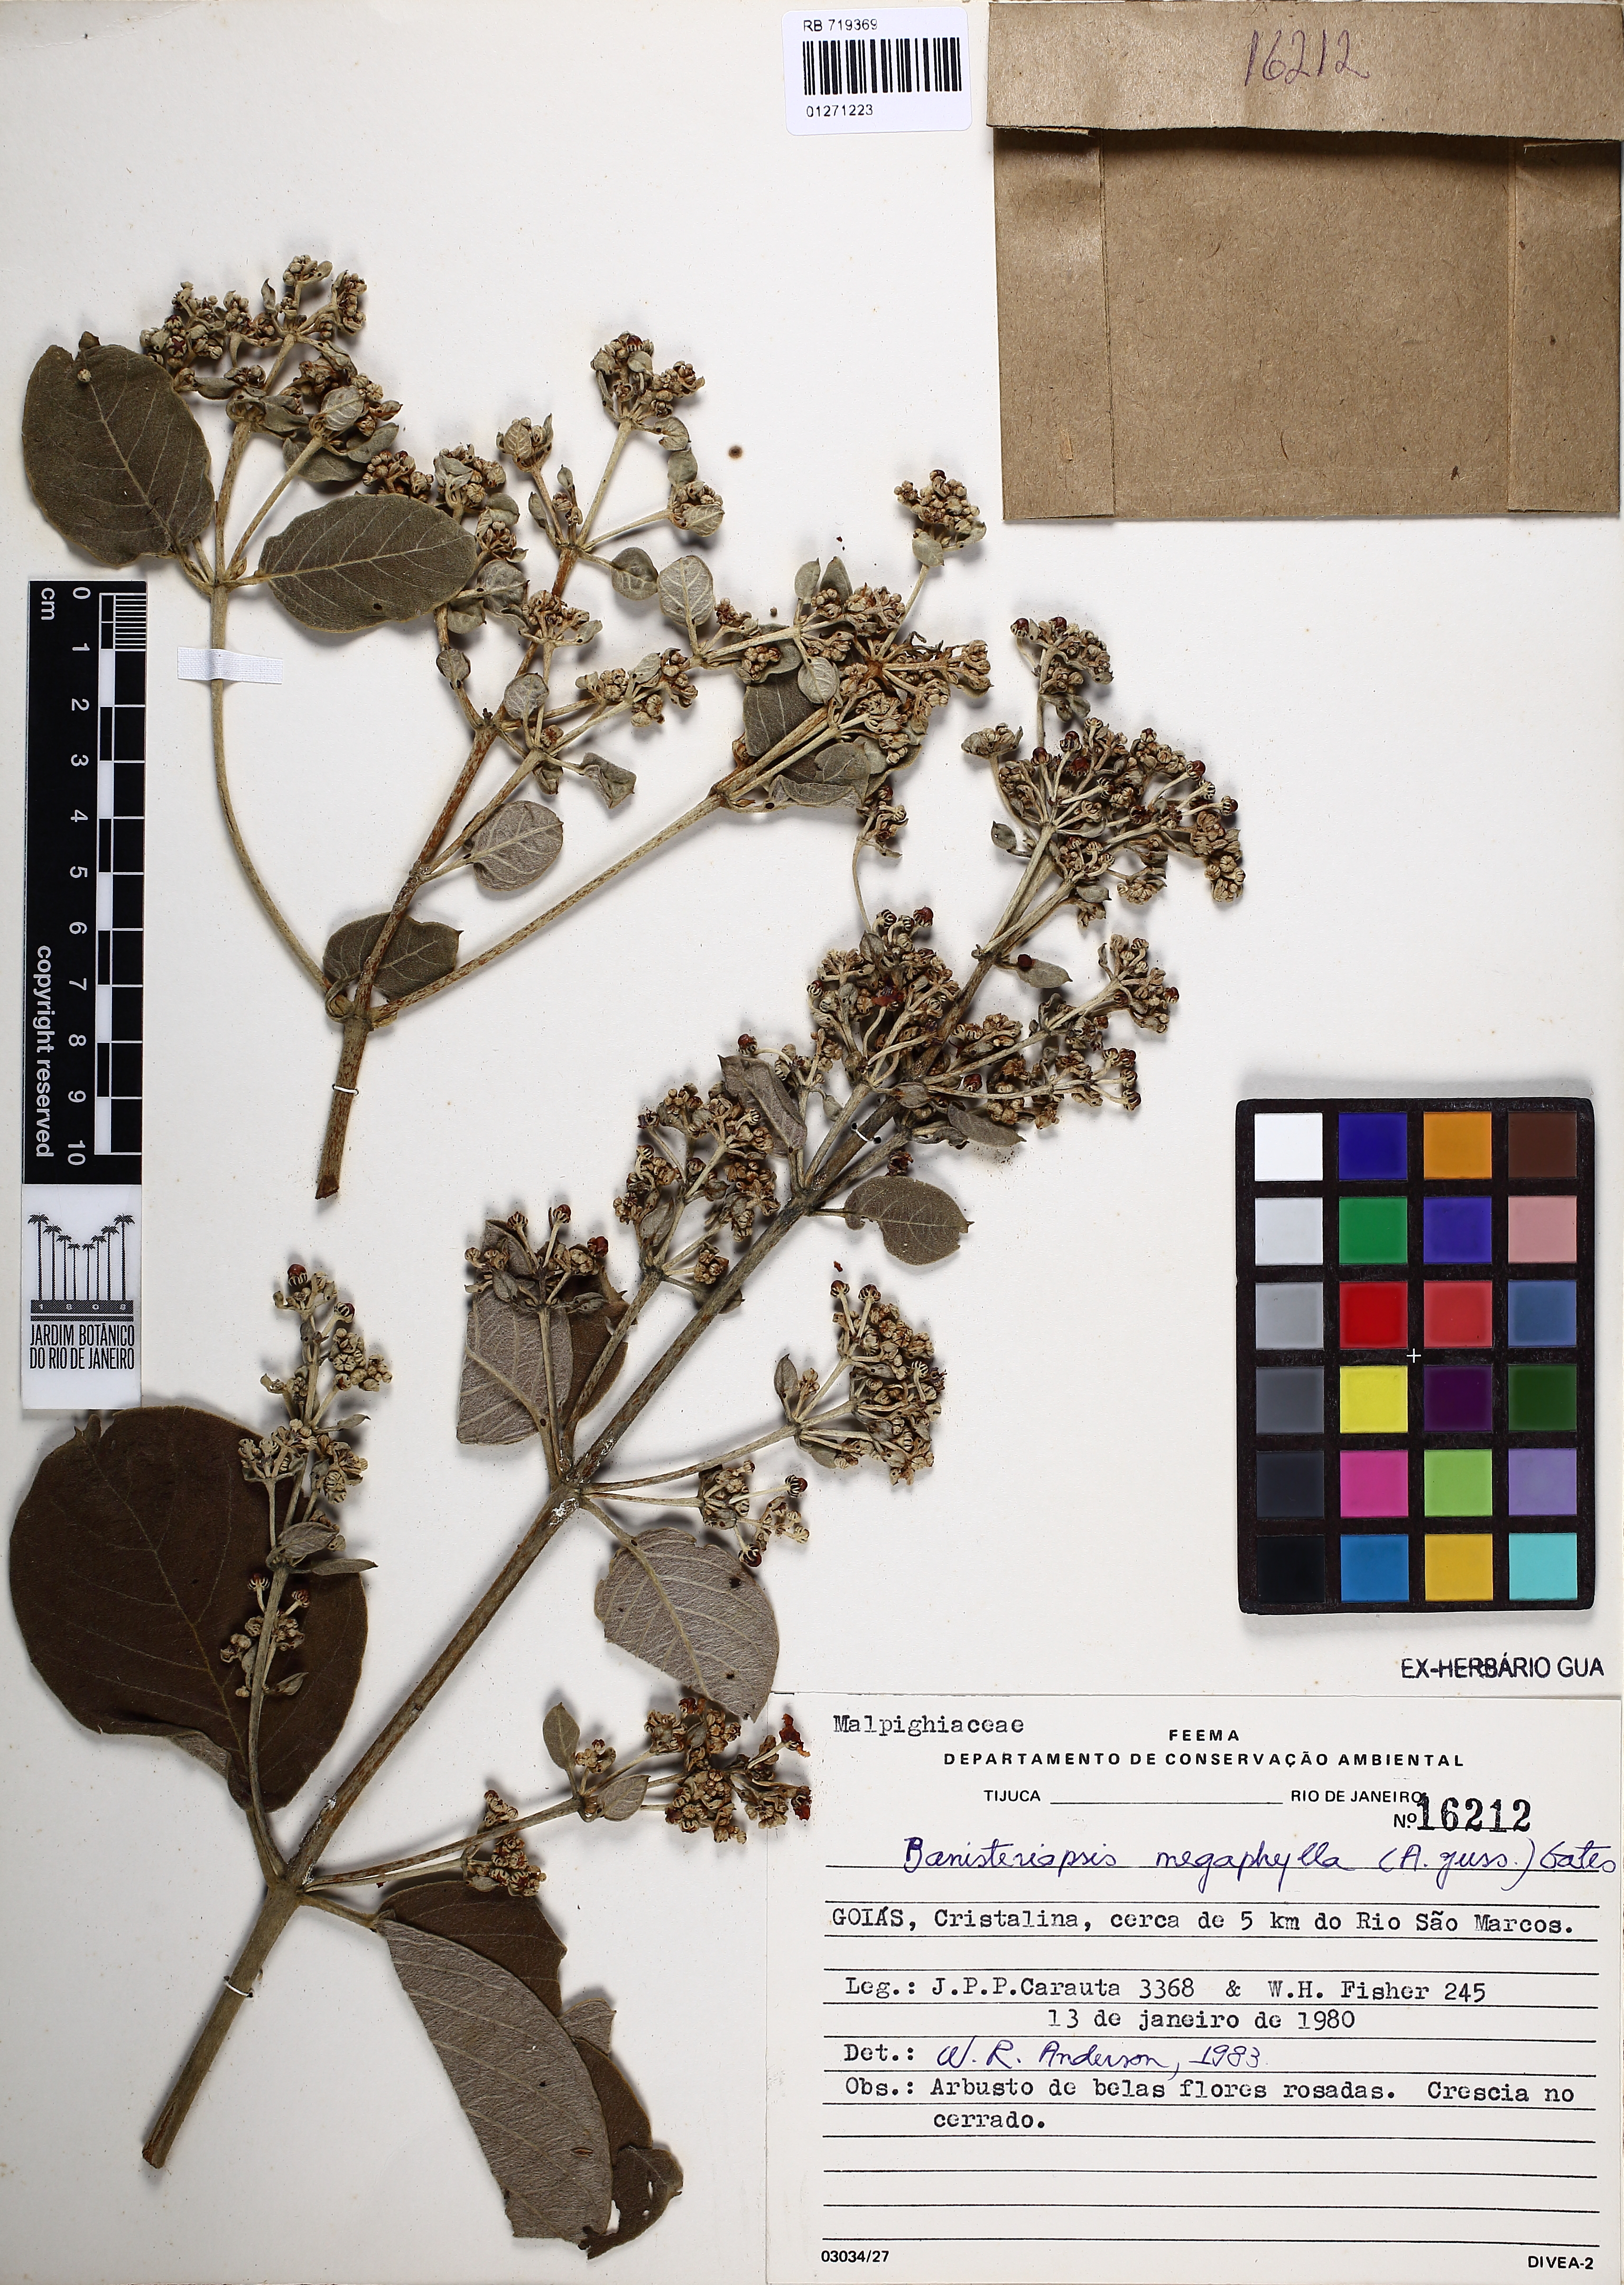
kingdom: Plantae
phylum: Tracheophyta
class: Magnoliopsida
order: Malpighiales
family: Malpighiaceae
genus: Banisteriopsis
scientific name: Banisteriopsis megaphylla
